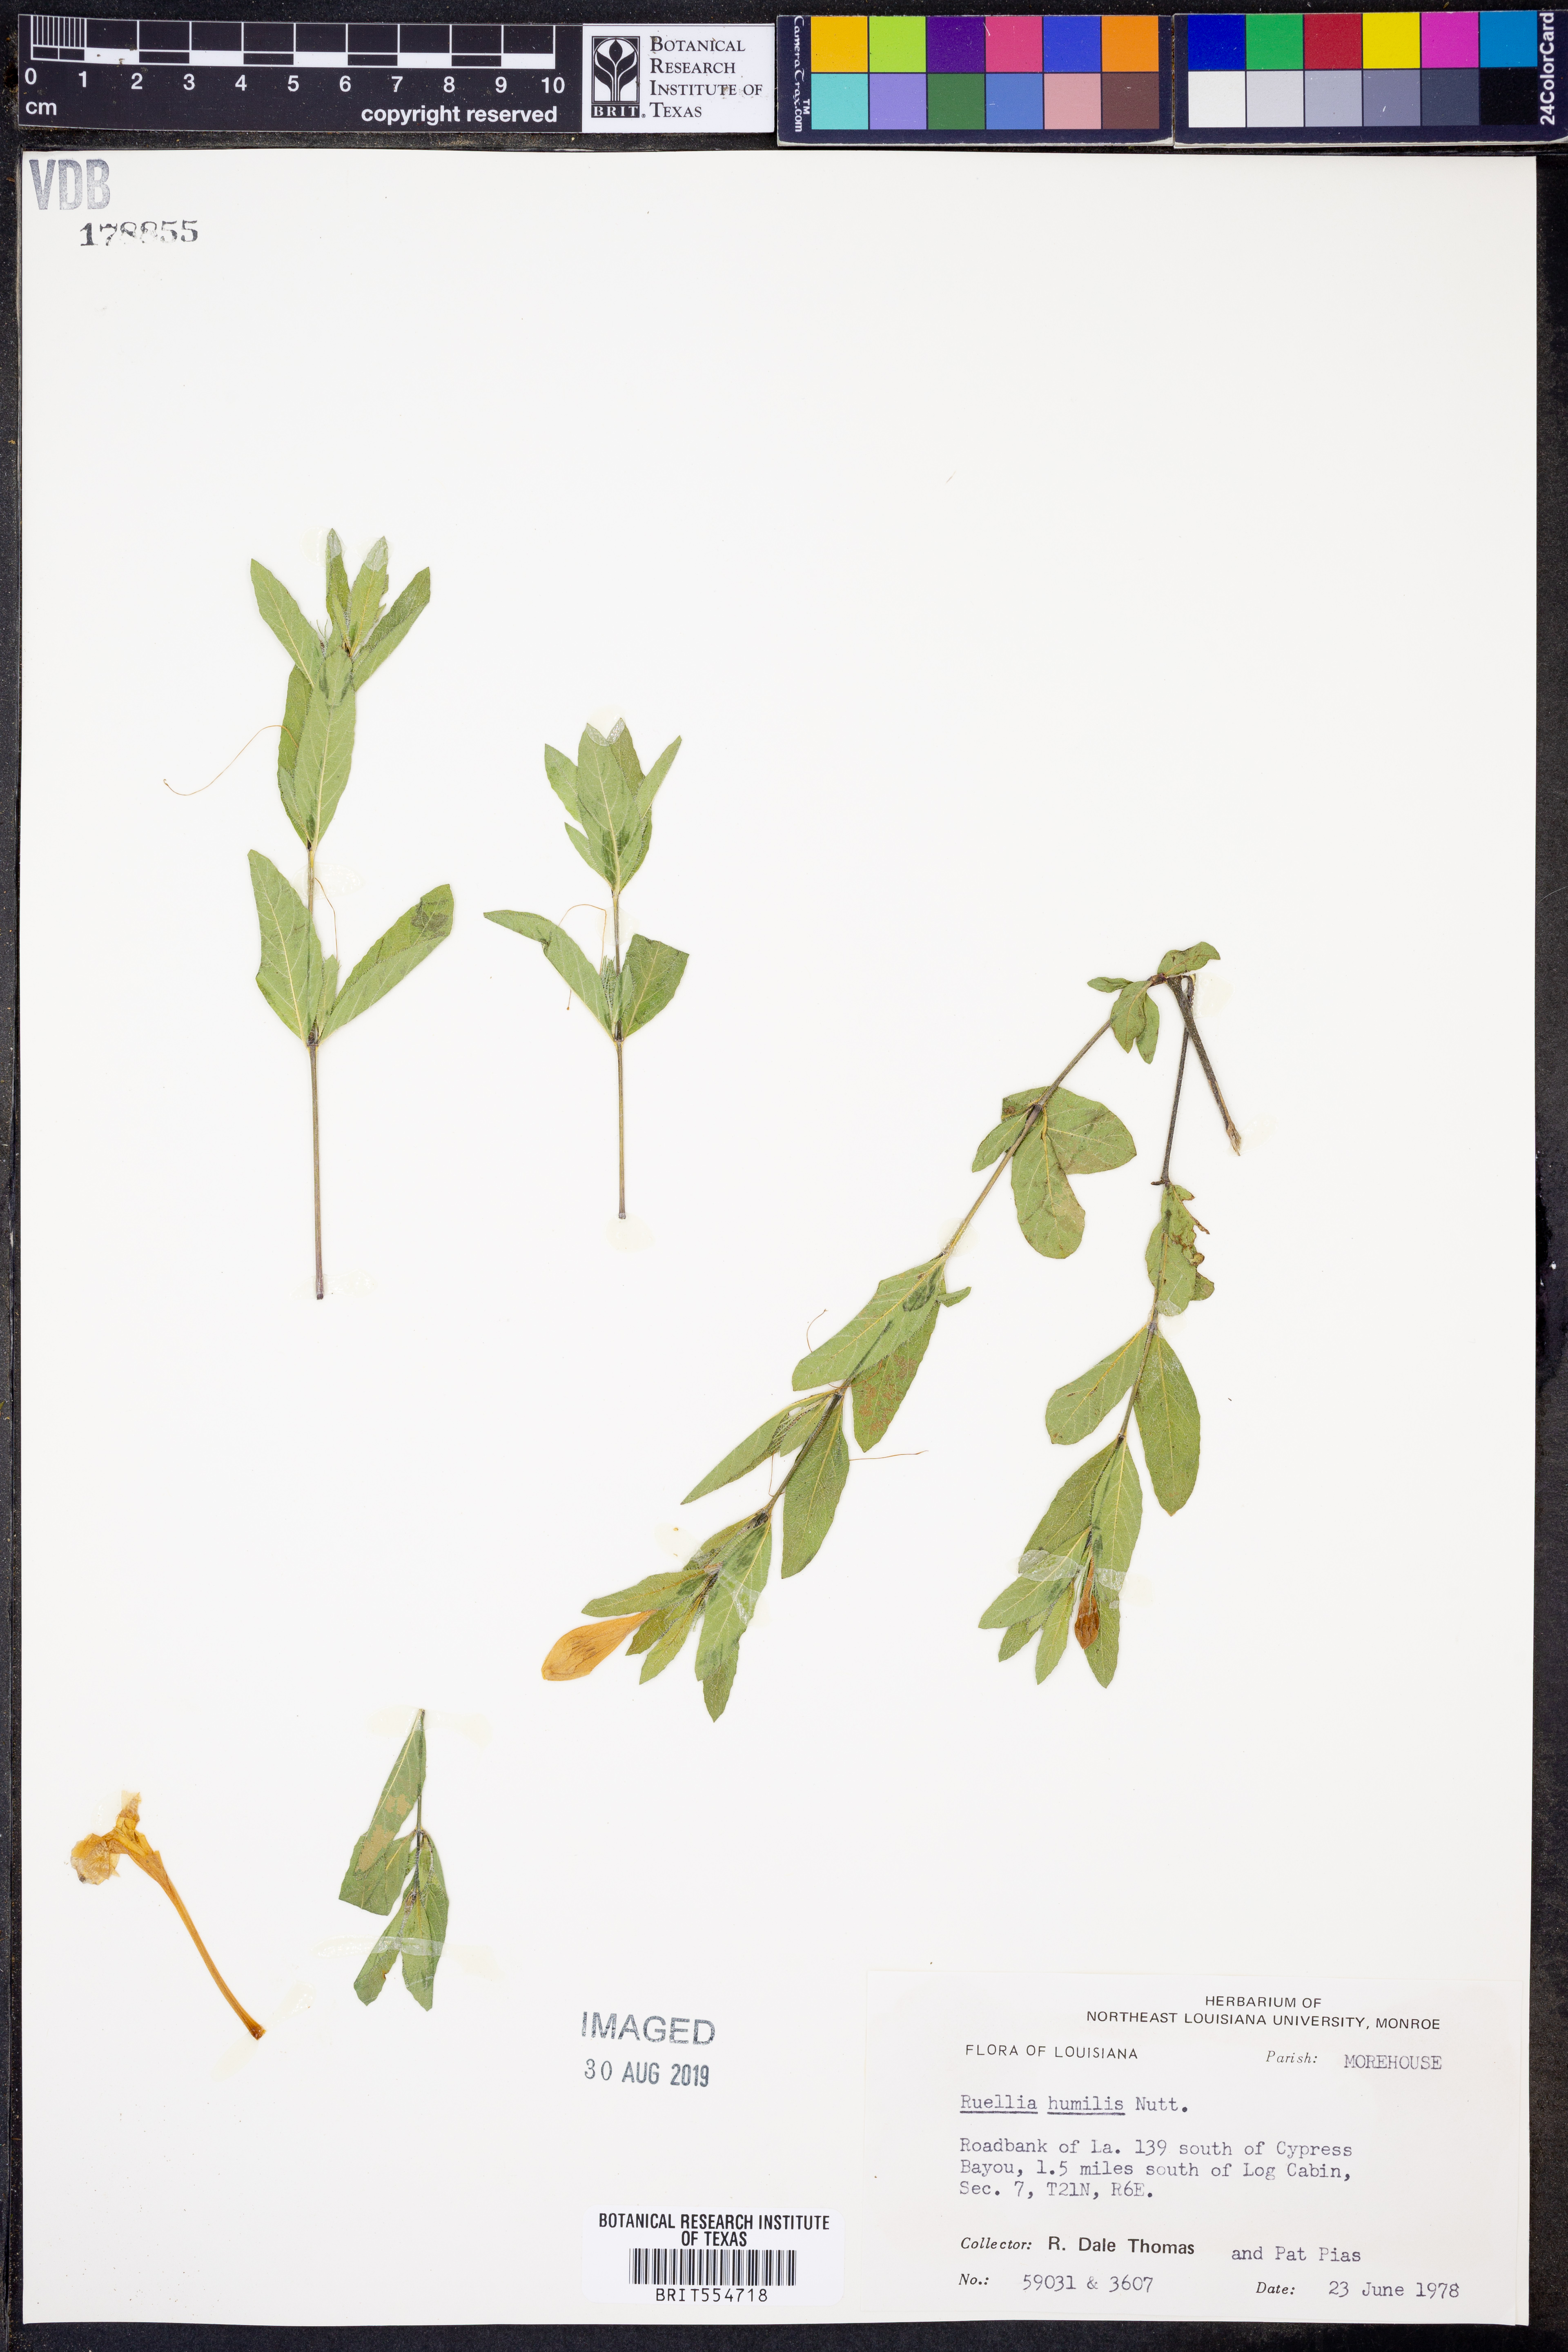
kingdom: Plantae
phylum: Tracheophyta
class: Magnoliopsida
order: Lamiales
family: Acanthaceae
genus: Ruellia
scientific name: Ruellia humilis
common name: Fringe-leaf ruellia
